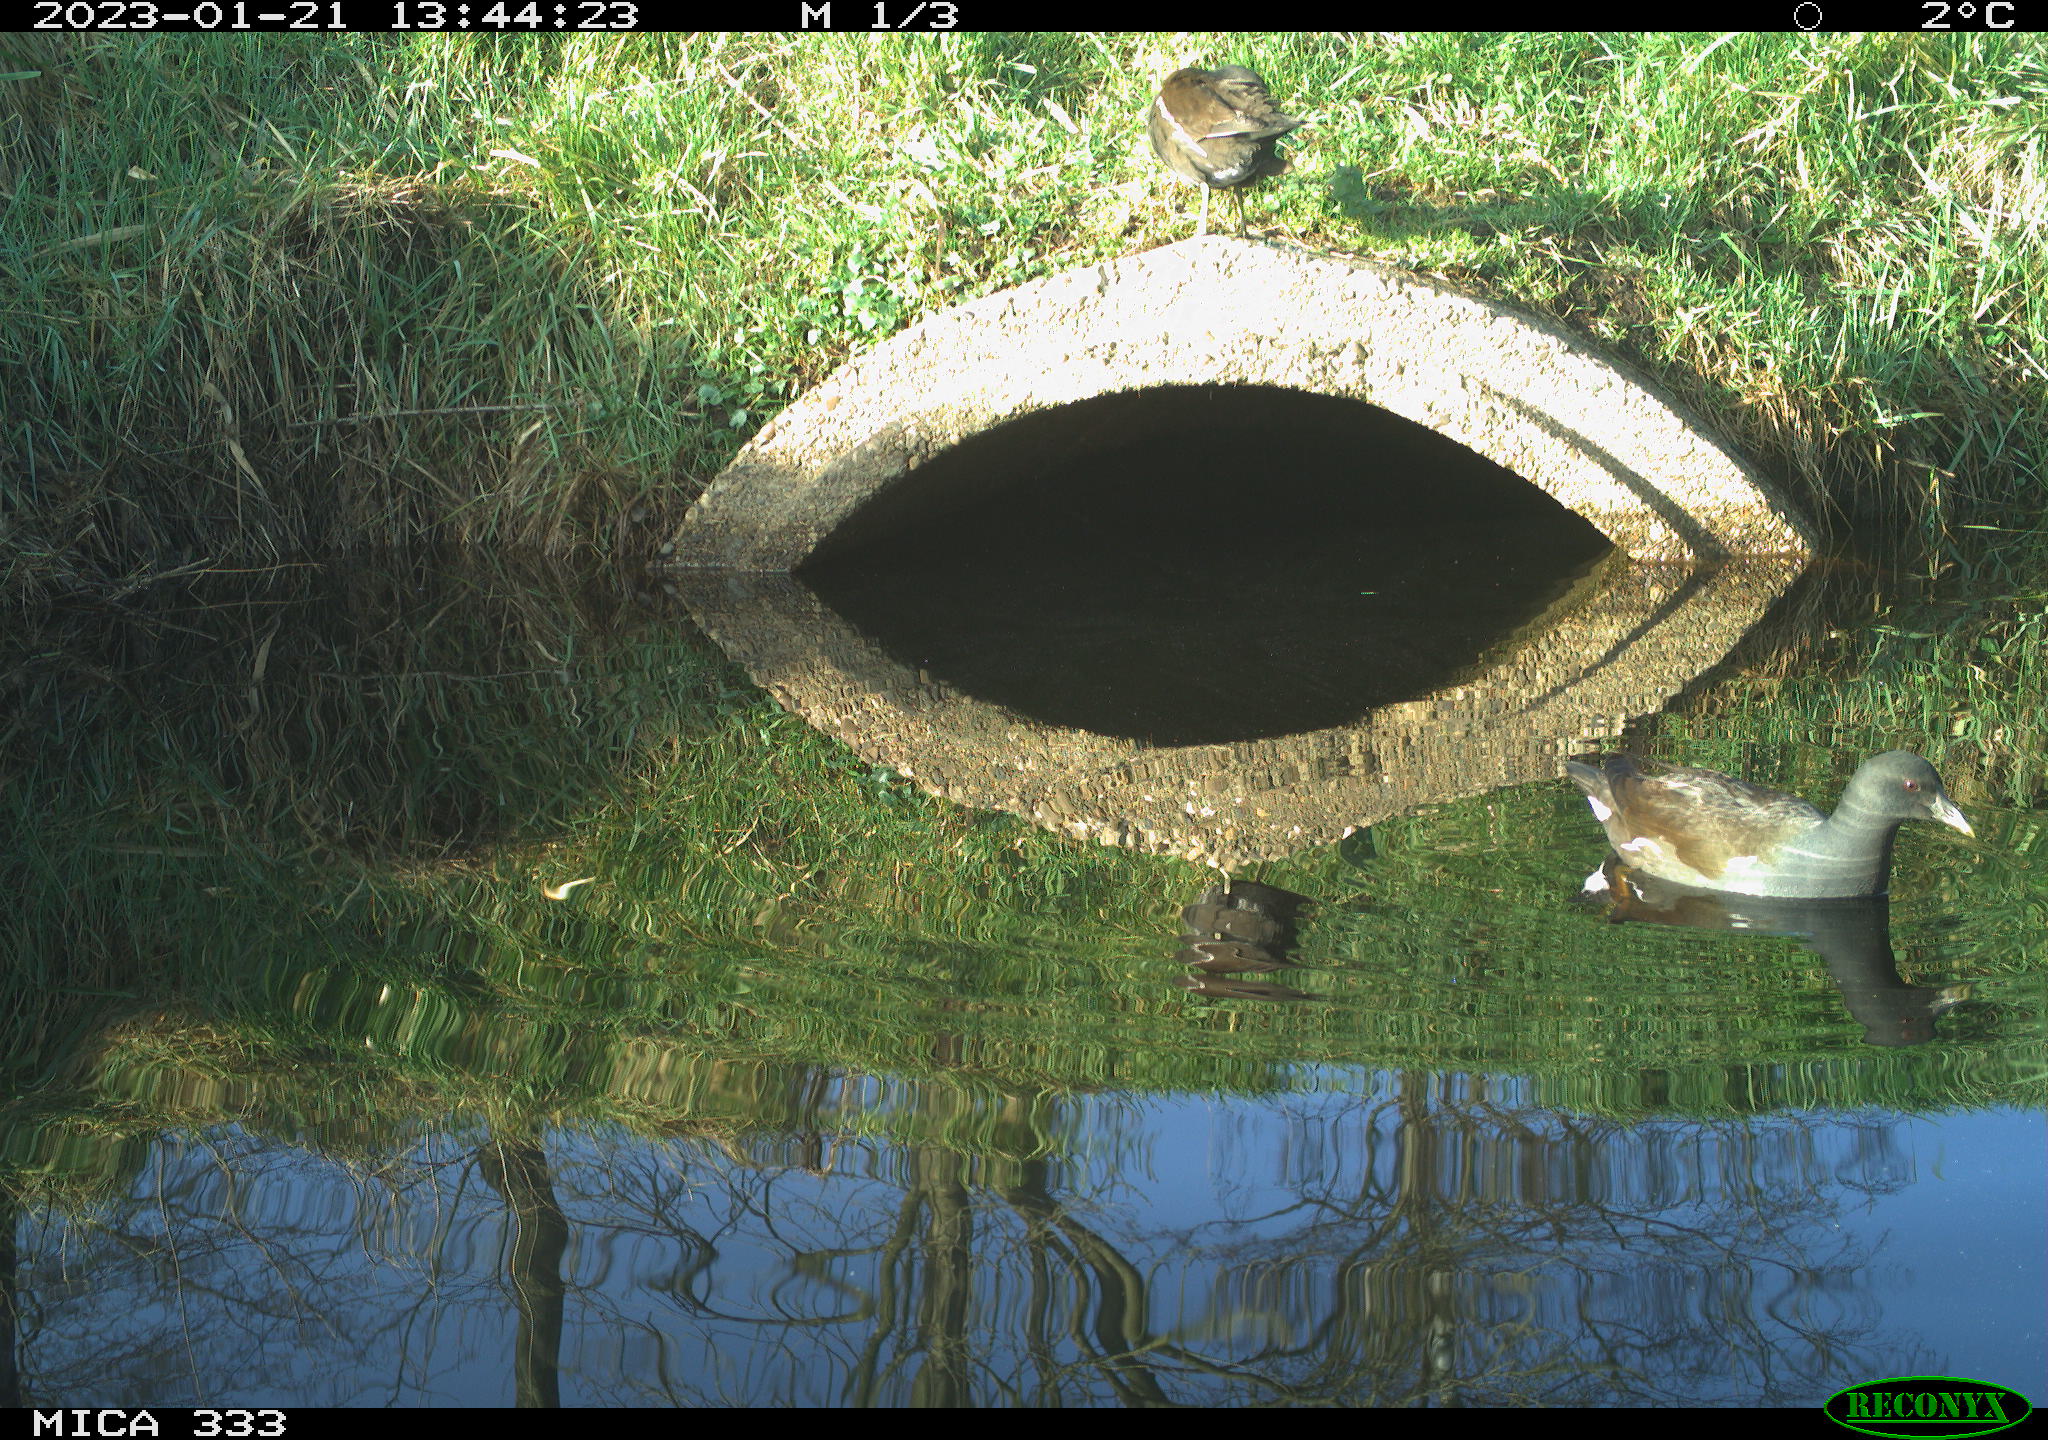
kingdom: Animalia
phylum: Chordata
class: Aves
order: Gruiformes
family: Rallidae
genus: Gallinula
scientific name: Gallinula chloropus
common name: Common moorhen
